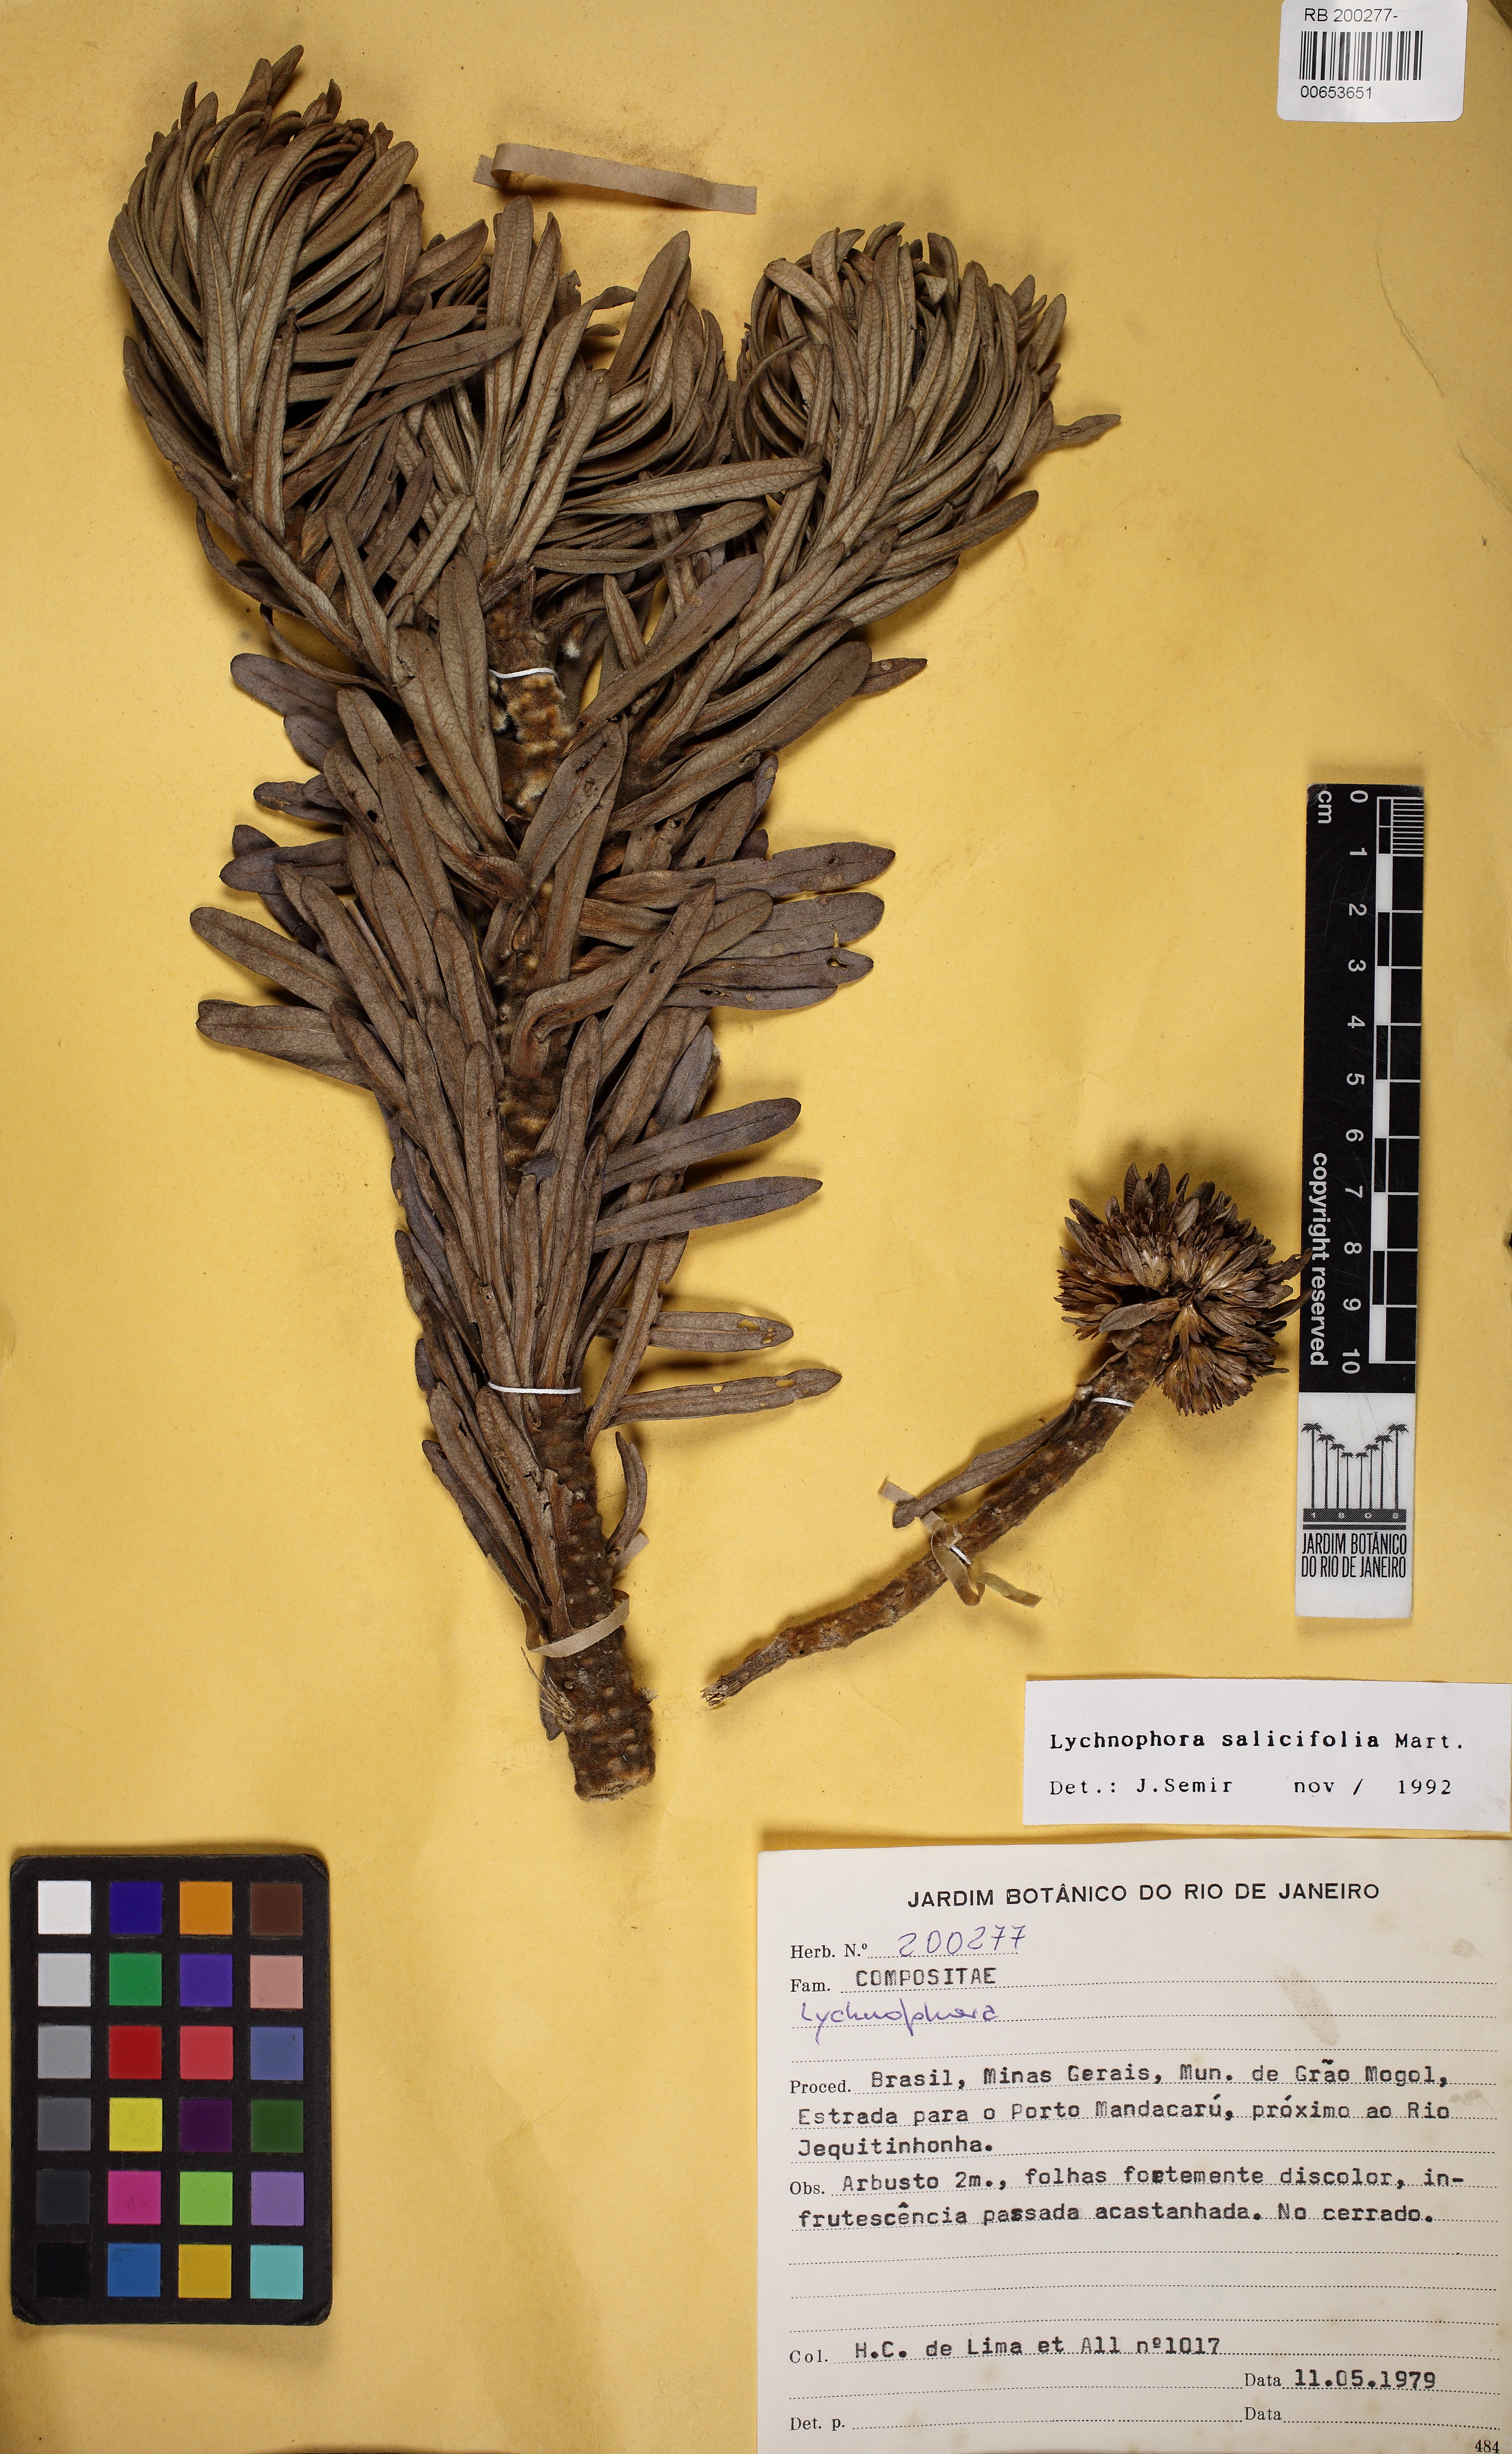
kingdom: Plantae
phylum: Tracheophyta
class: Magnoliopsida
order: Asterales
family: Asteraceae
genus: Lychnophora
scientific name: Lychnophora salicifolia
